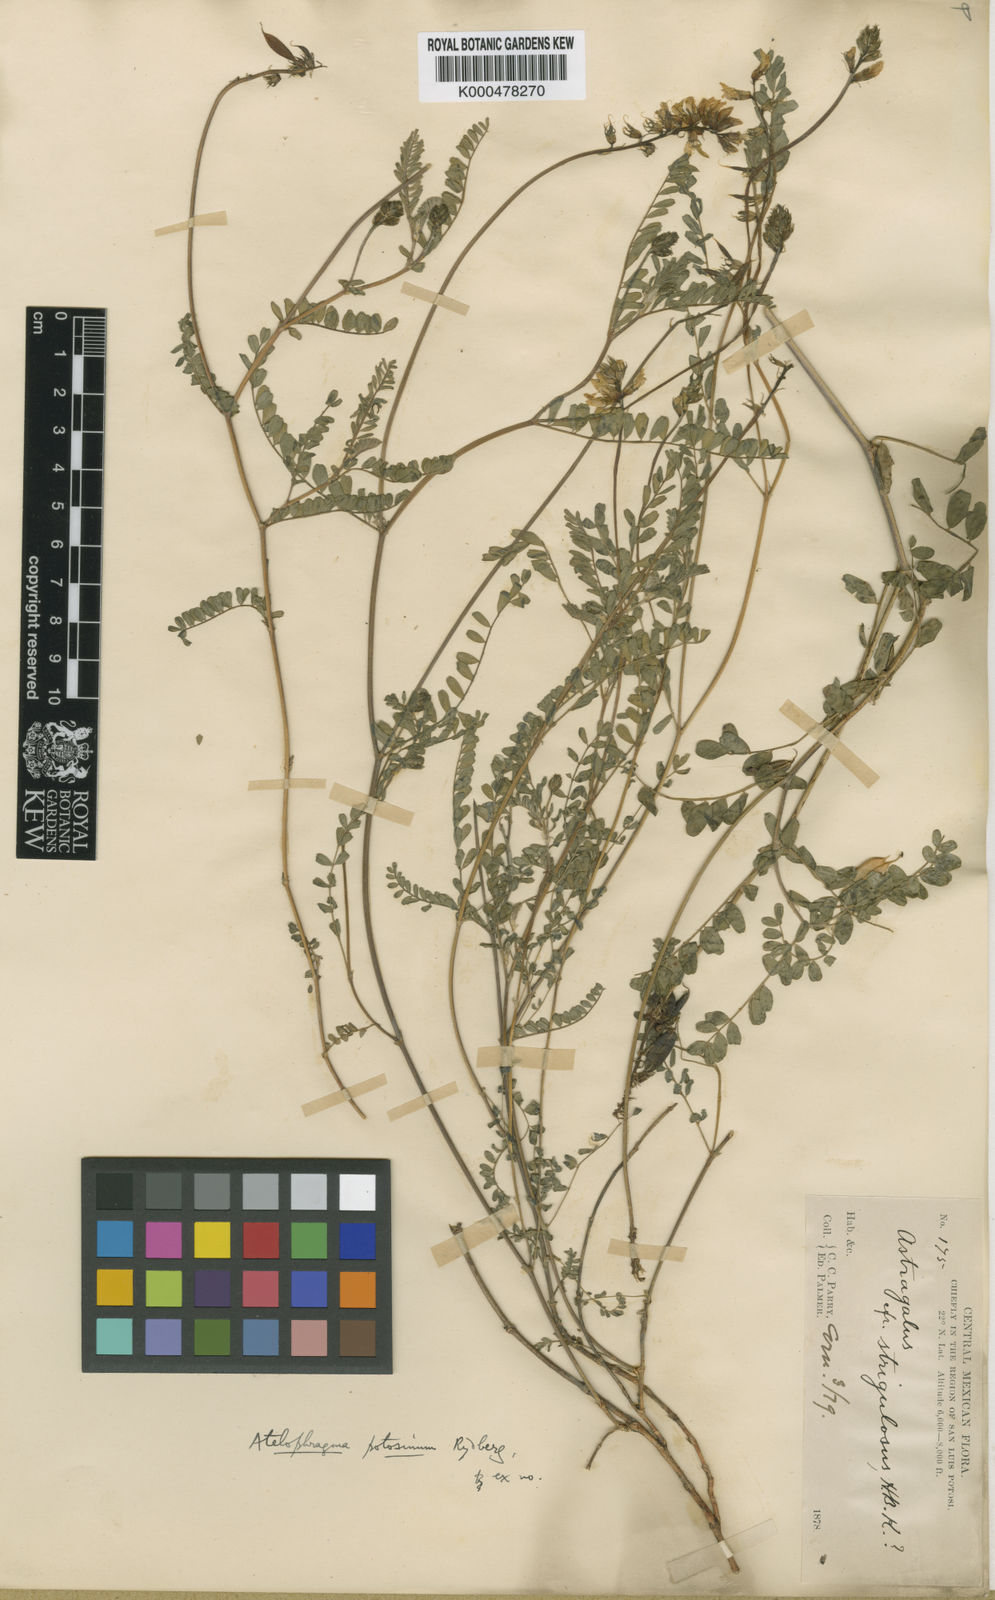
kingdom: Plantae
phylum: Tracheophyta
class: Magnoliopsida
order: Fabales
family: Fabaceae
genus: Astragalus
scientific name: Astragalus potosinus
